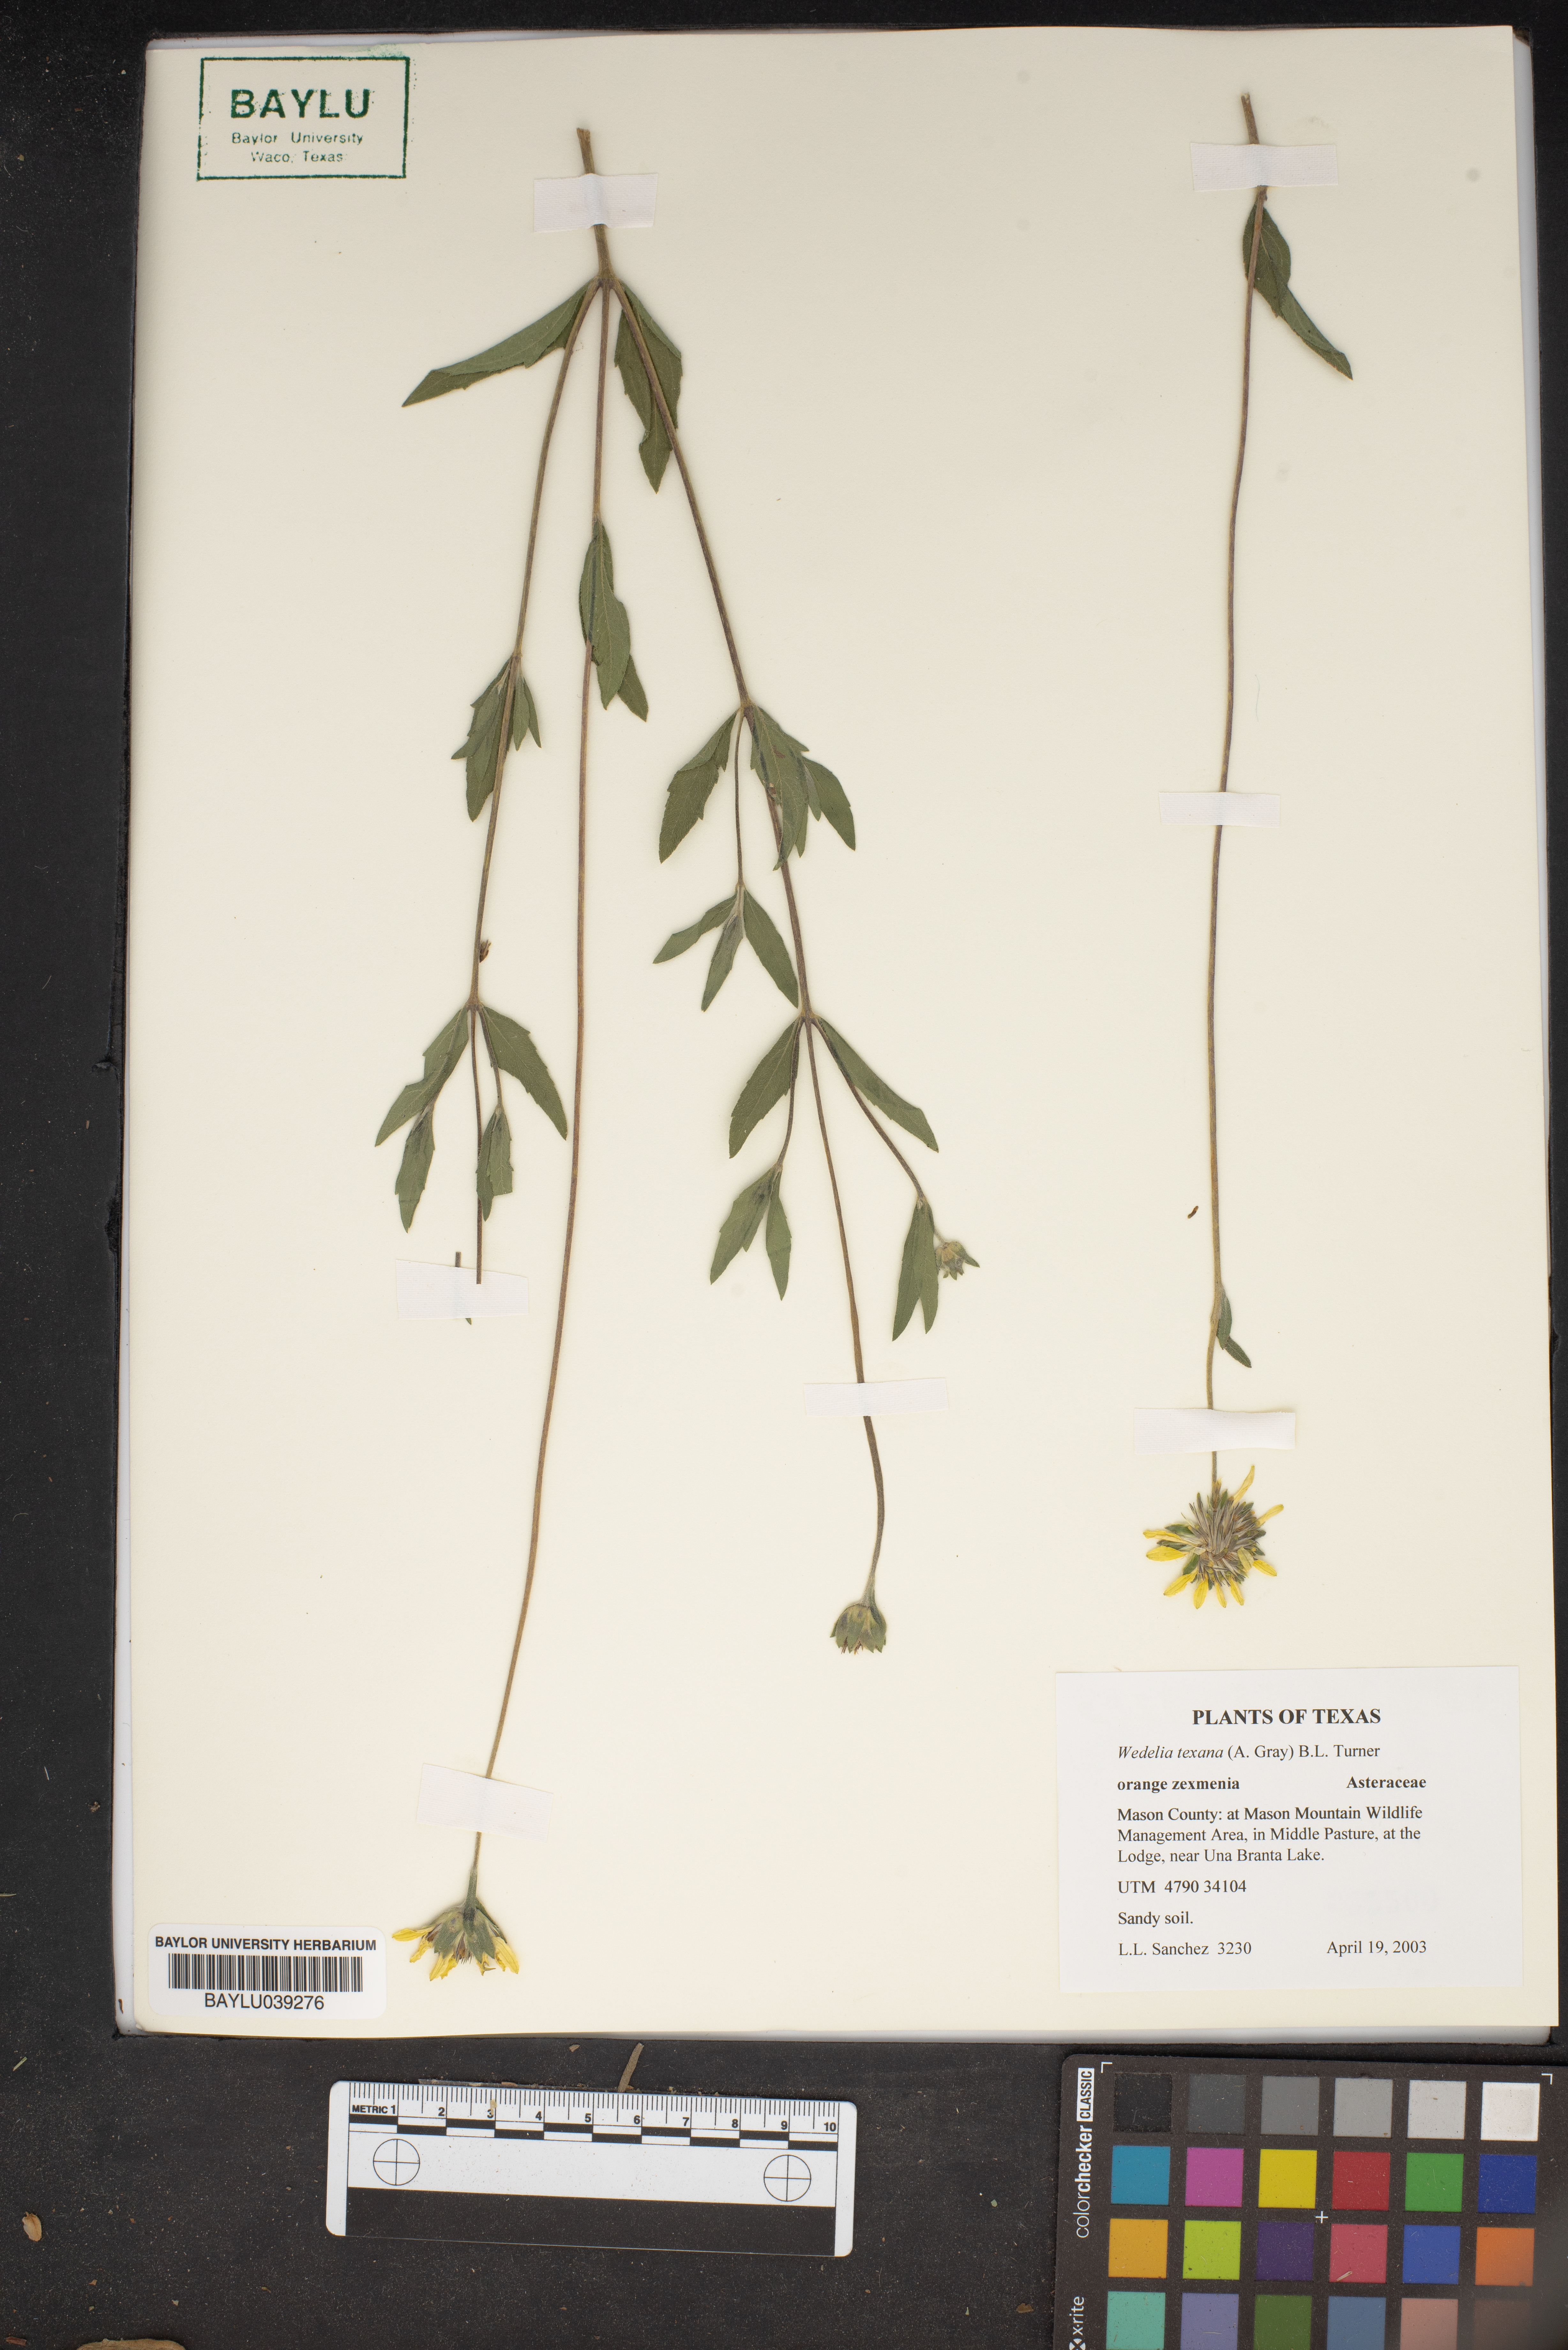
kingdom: Plantae
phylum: Tracheophyta
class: Magnoliopsida
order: Asterales
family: Asteraceae
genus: Wedelia
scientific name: Wedelia acapulcensis
